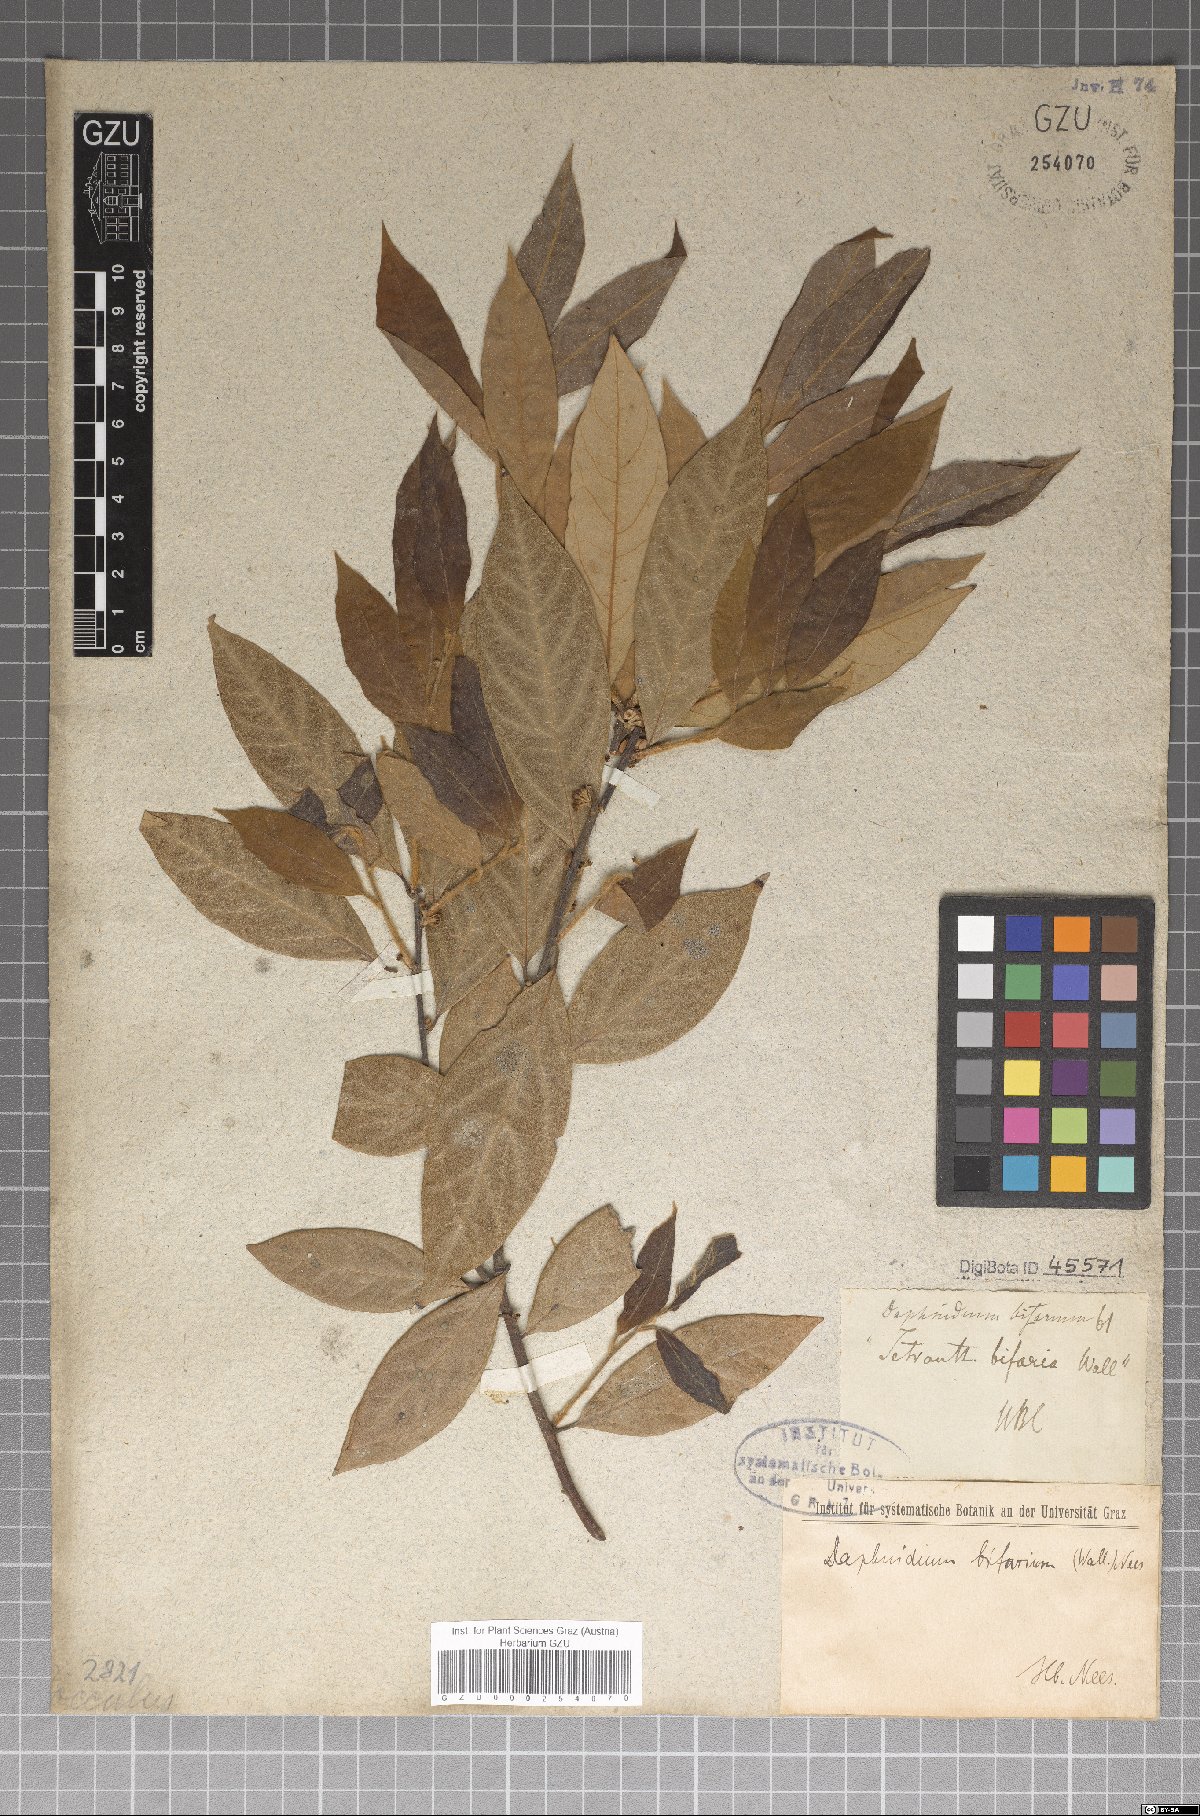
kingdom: Plantae
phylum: Tracheophyta
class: Magnoliopsida
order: Laurales
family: Lauraceae
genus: Lindera
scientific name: Lindera nacusua
